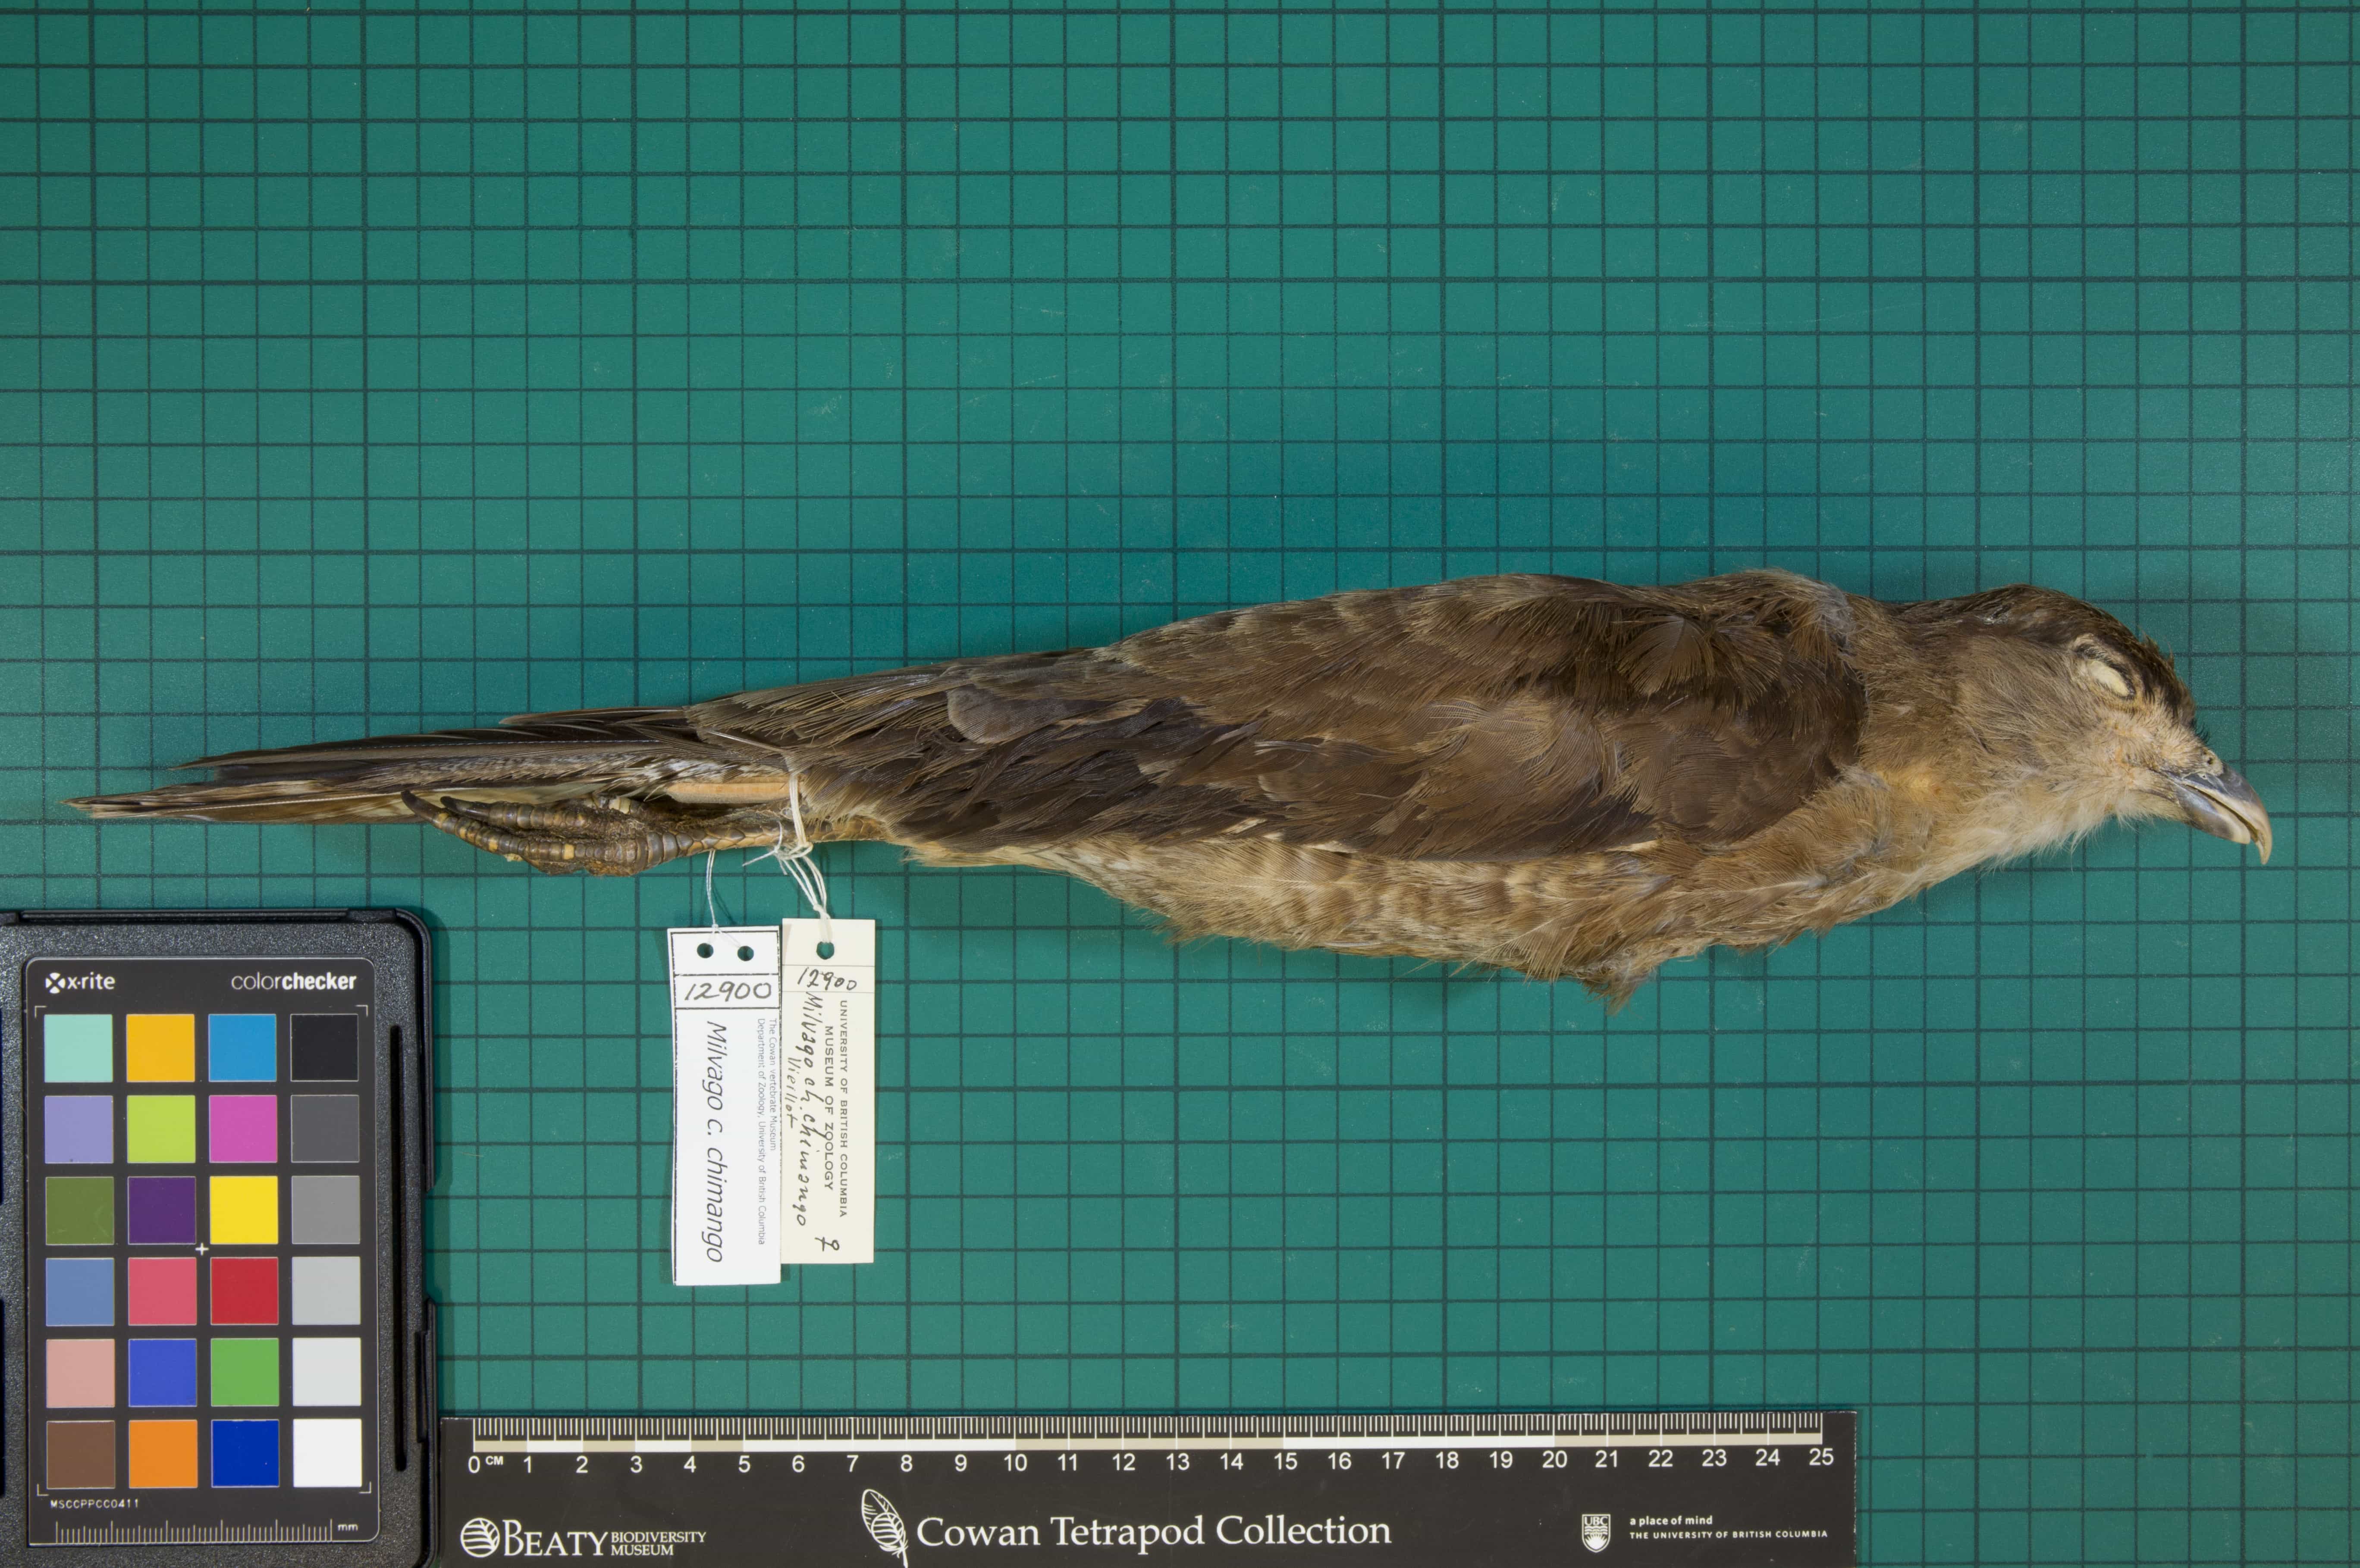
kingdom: Animalia
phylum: Chordata
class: Aves
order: Falconiformes
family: Falconidae
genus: Milvago
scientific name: Milvago chimango
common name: Chimango Caracara
